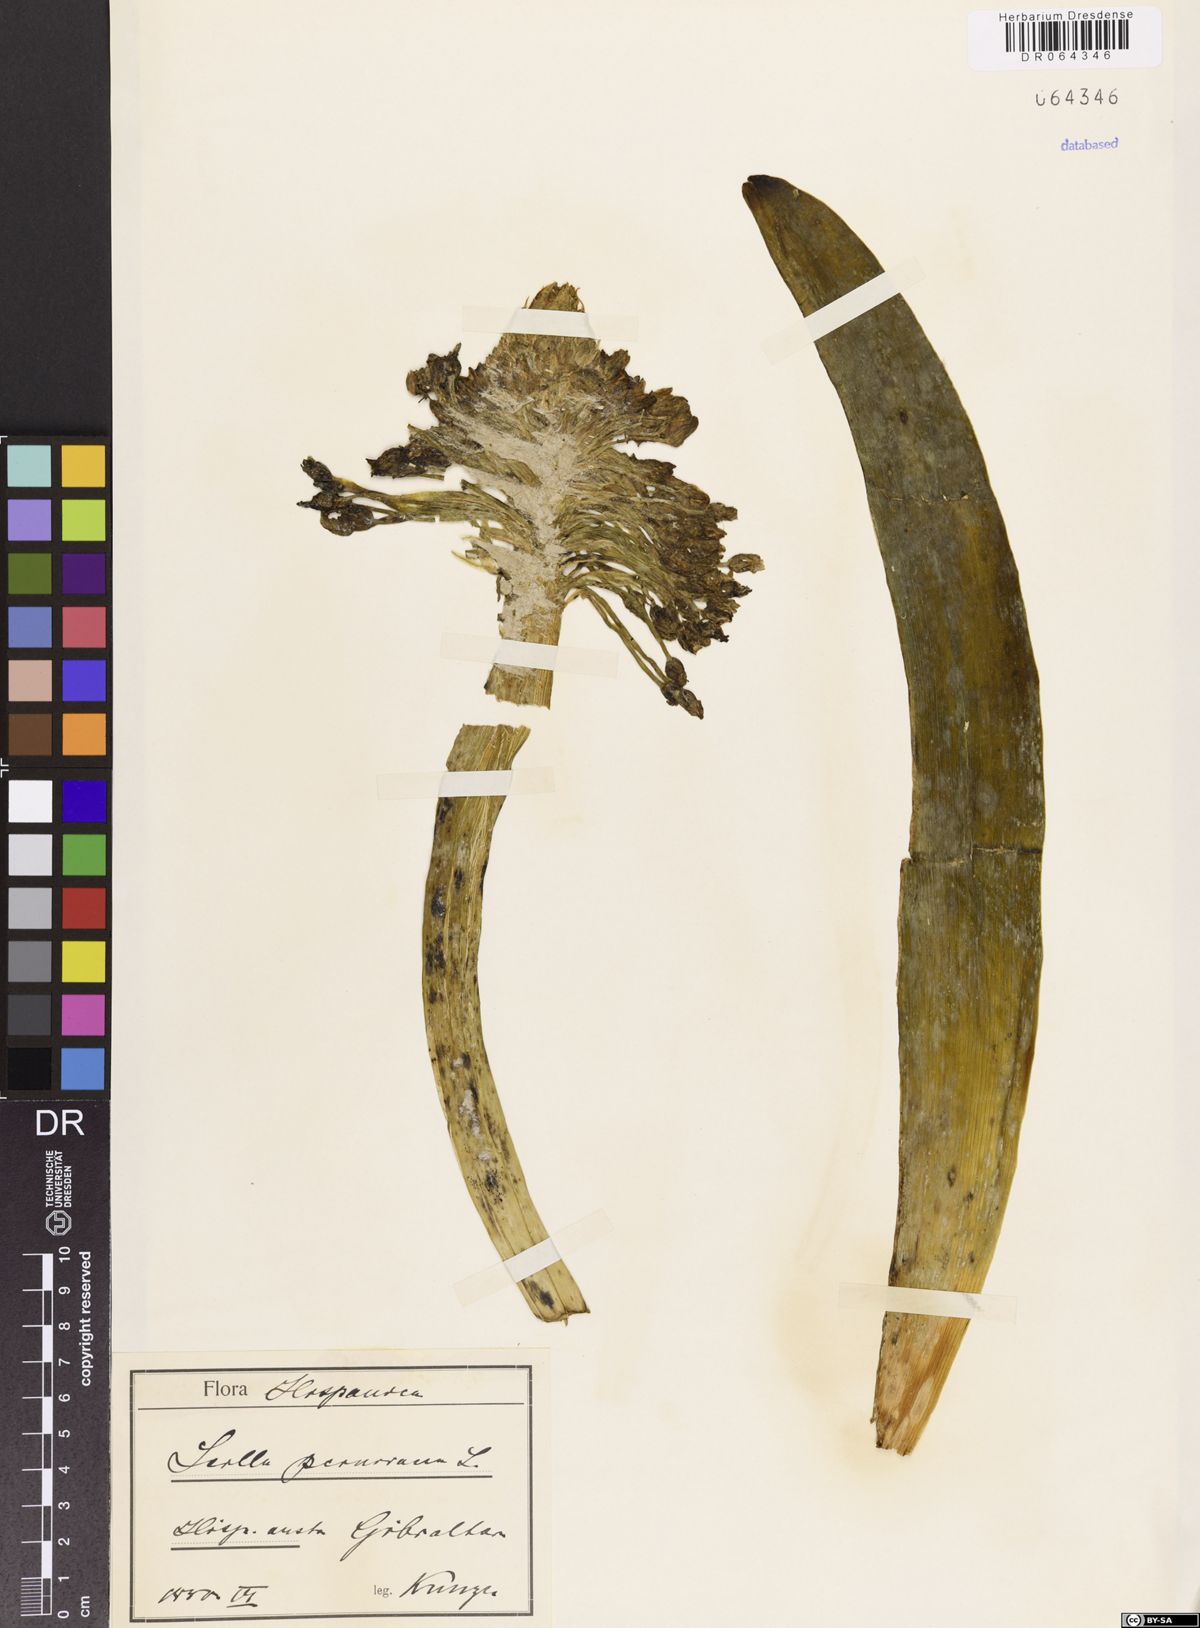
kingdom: Plantae
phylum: Tracheophyta
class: Liliopsida
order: Asparagales
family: Asparagaceae
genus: Scilla
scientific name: Scilla peruviana
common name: Portuguese squill
